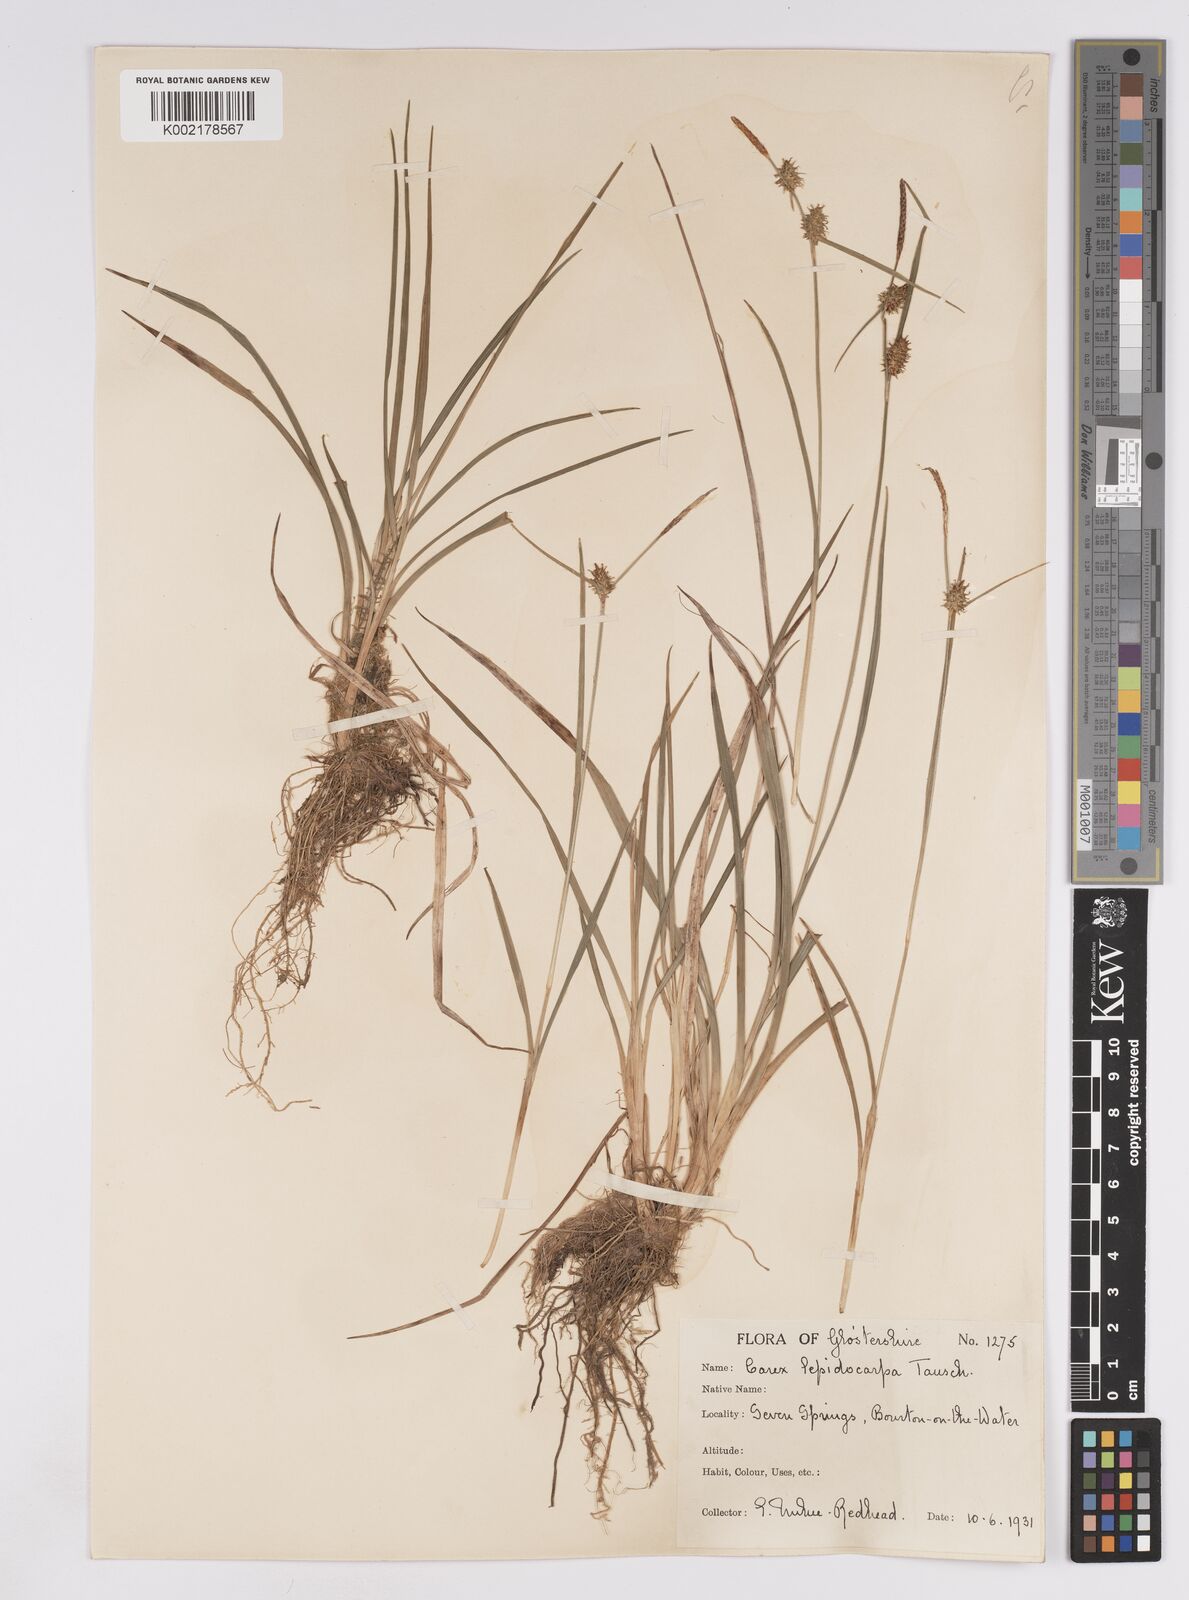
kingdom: Plantae
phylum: Tracheophyta
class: Liliopsida
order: Poales
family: Cyperaceae
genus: Carex
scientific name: Carex lepidocarpa
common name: Long-stalked yellow-sedge
